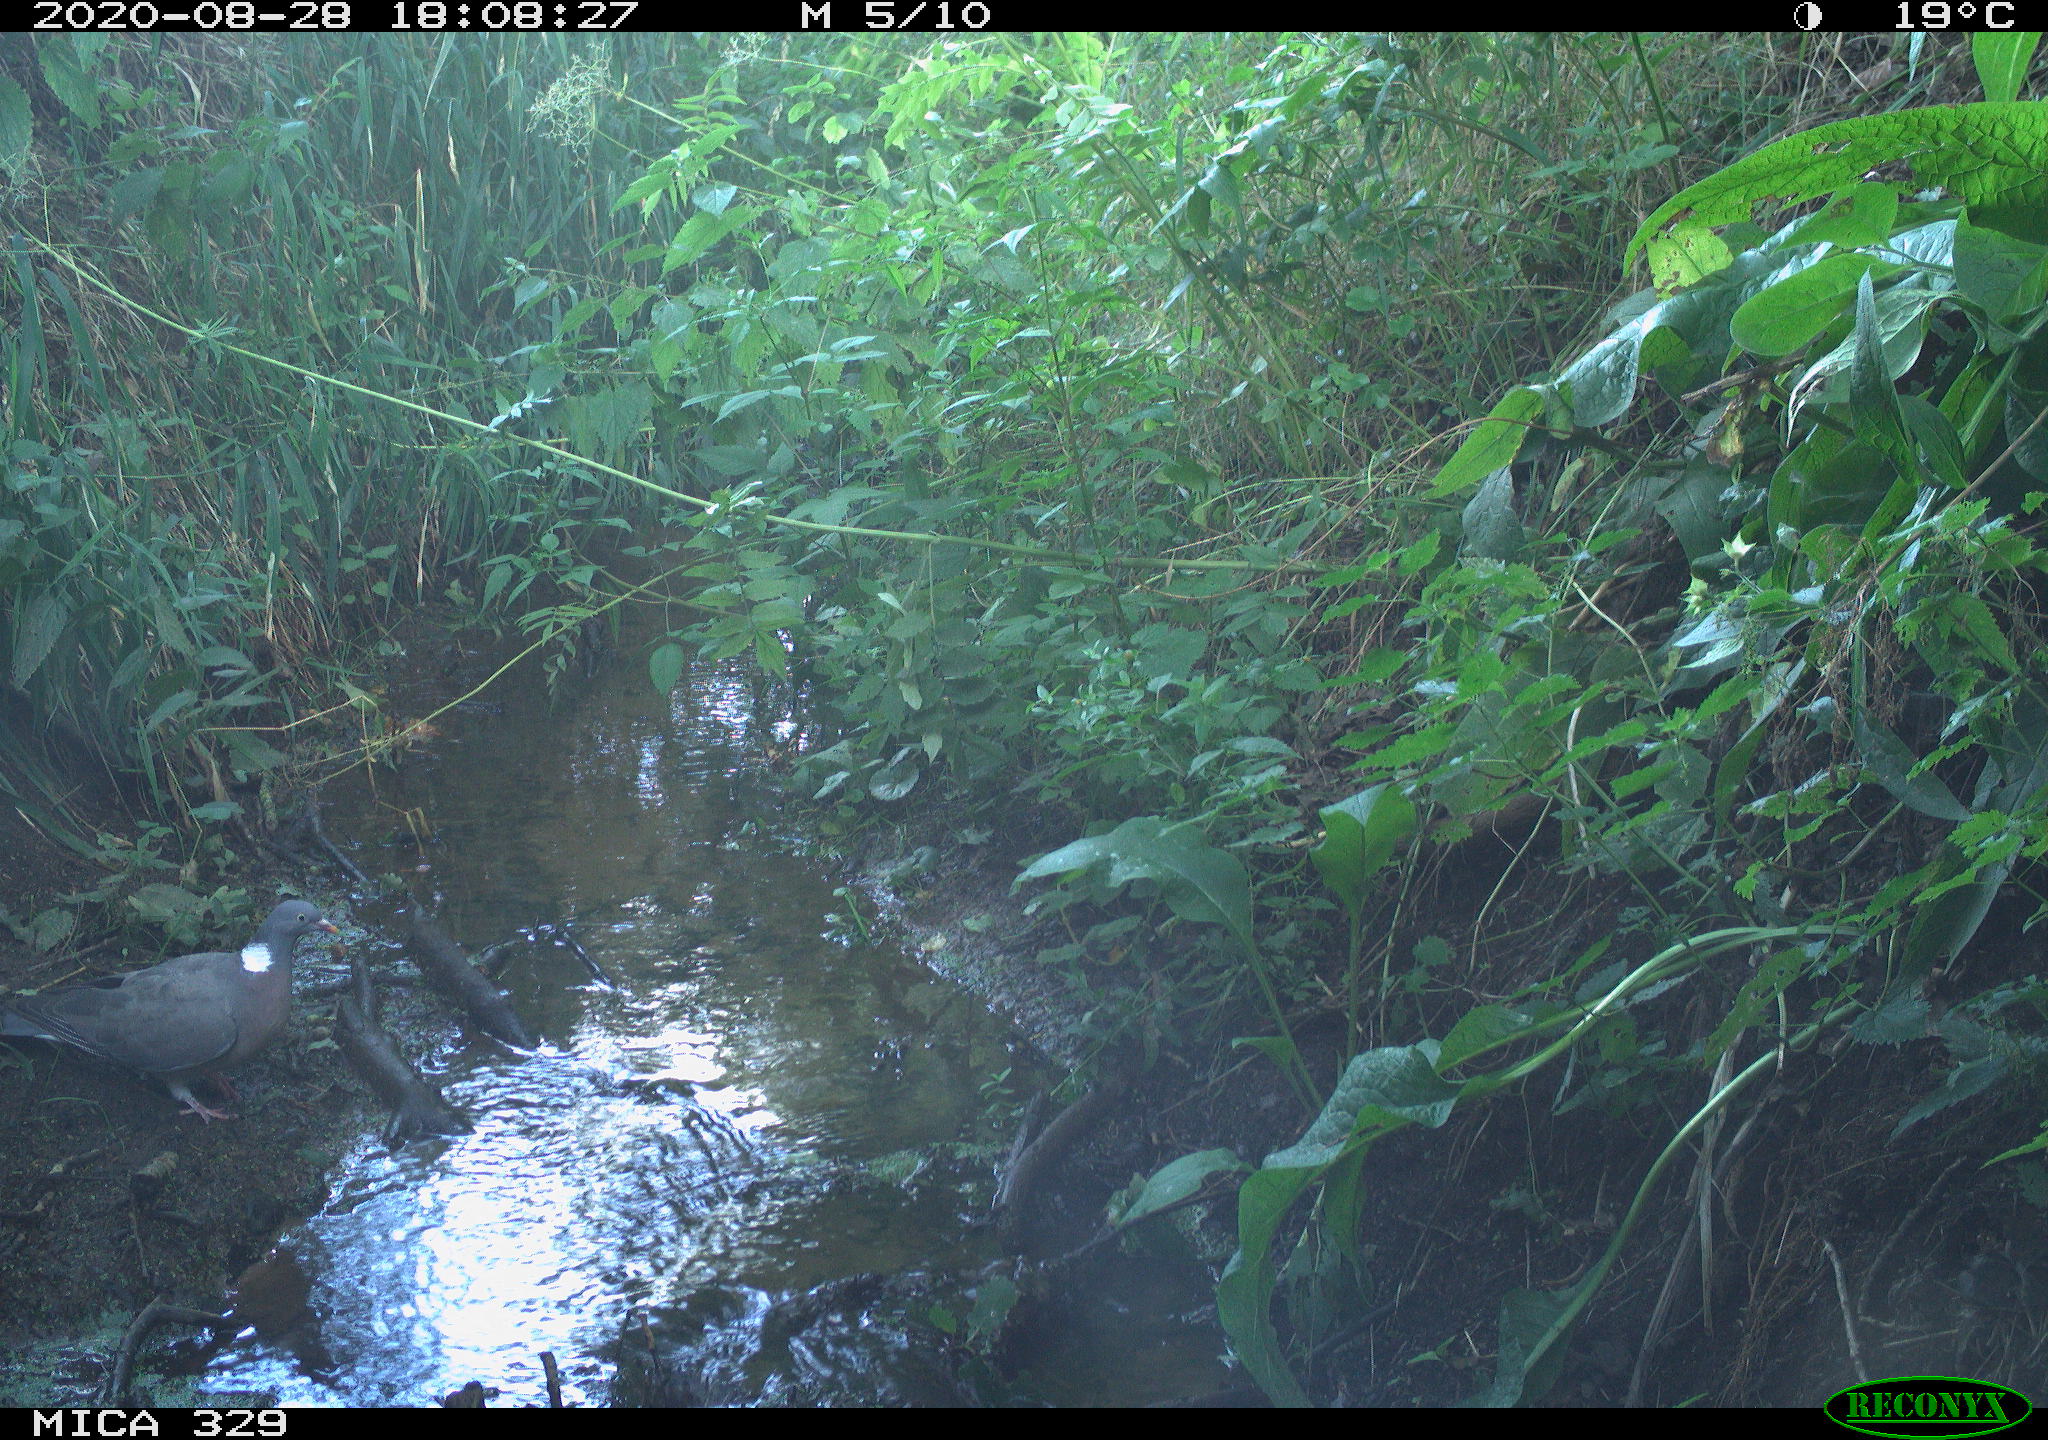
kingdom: Animalia
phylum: Chordata
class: Aves
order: Columbiformes
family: Columbidae
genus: Columba
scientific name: Columba palumbus
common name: Common wood pigeon
